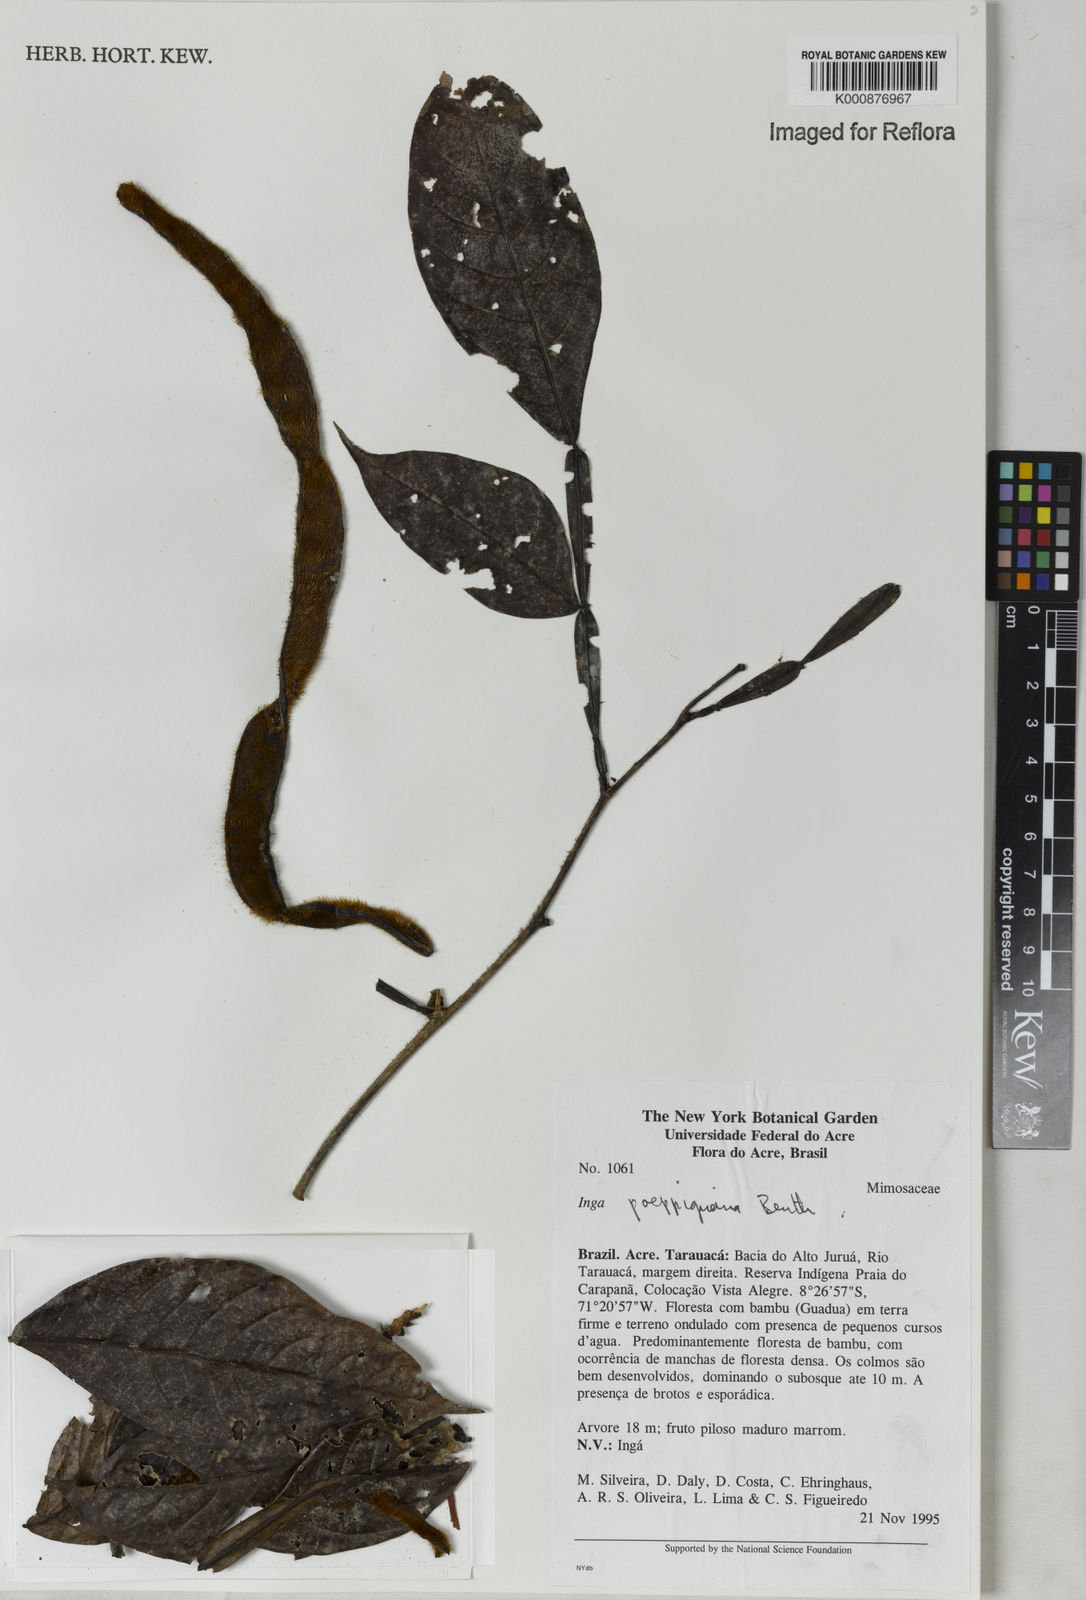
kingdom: Plantae
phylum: Tracheophyta
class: Magnoliopsida
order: Fabales
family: Fabaceae
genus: Inga
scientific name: Inga poeppigiana
